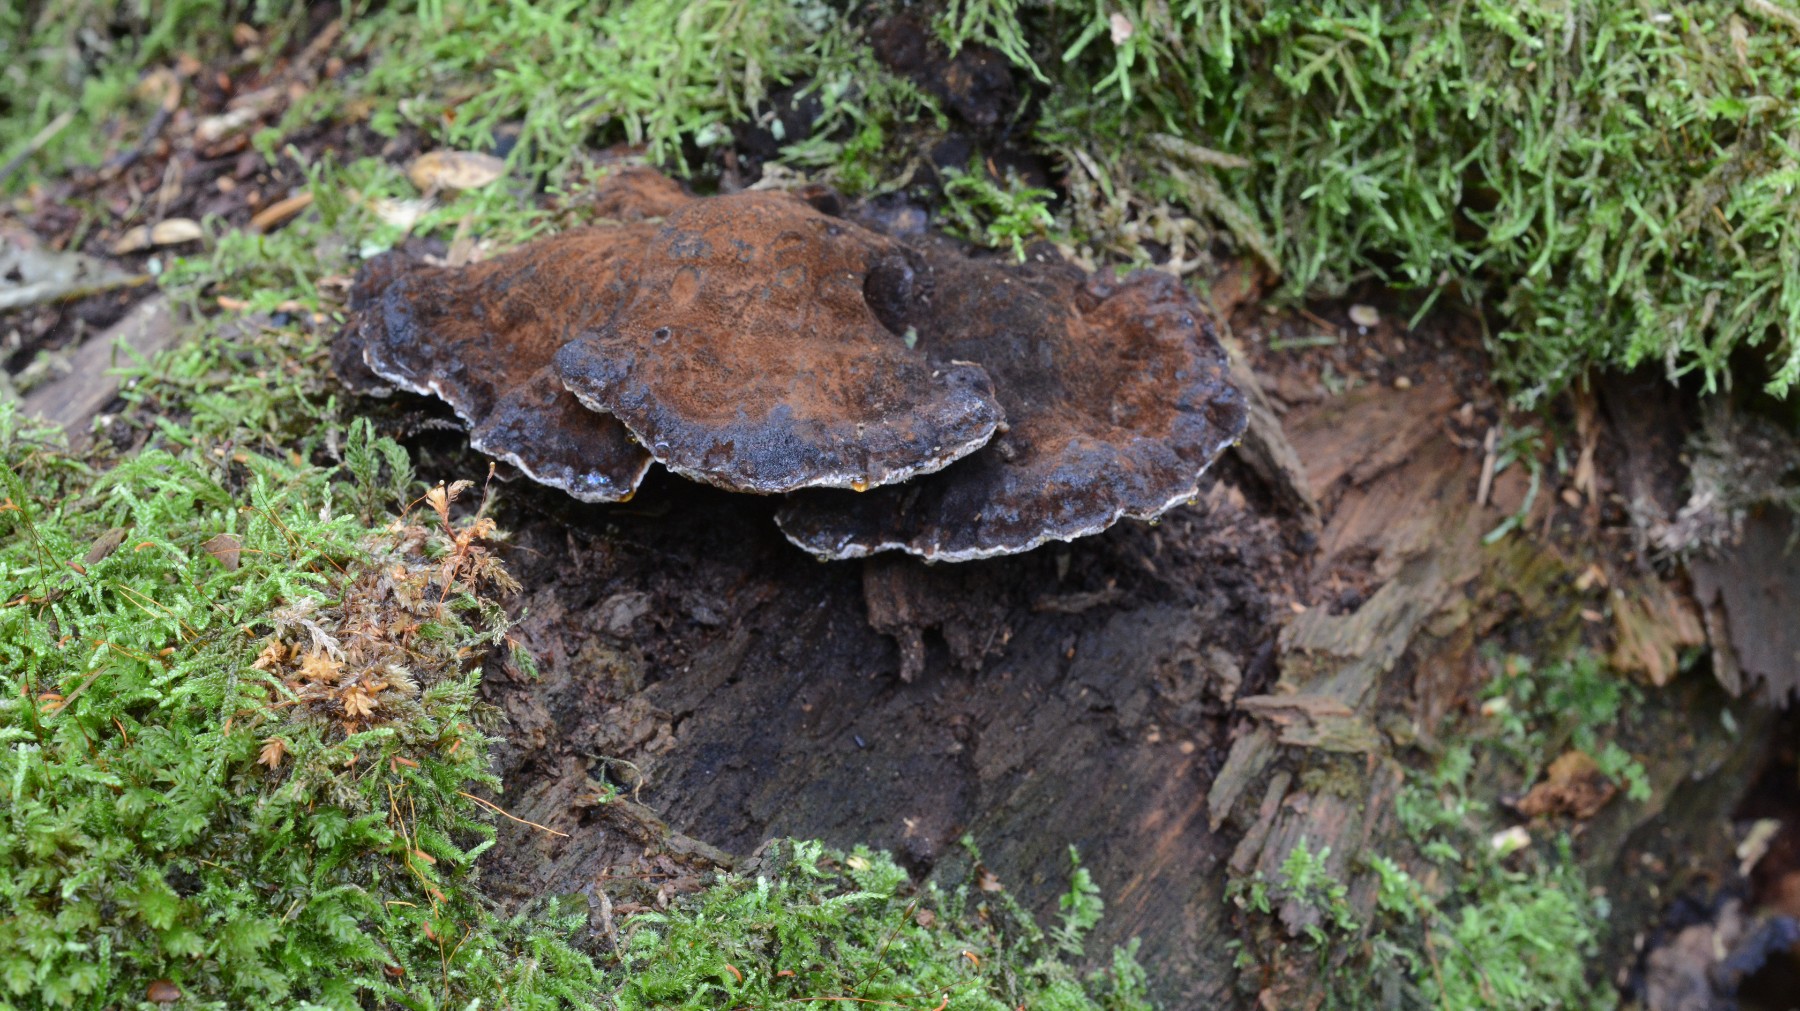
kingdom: Fungi
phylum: Basidiomycota
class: Agaricomycetes
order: Polyporales
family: Ischnodermataceae
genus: Ischnoderma
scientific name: Ischnoderma benzoinum
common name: gran-tjæreporesvamp
